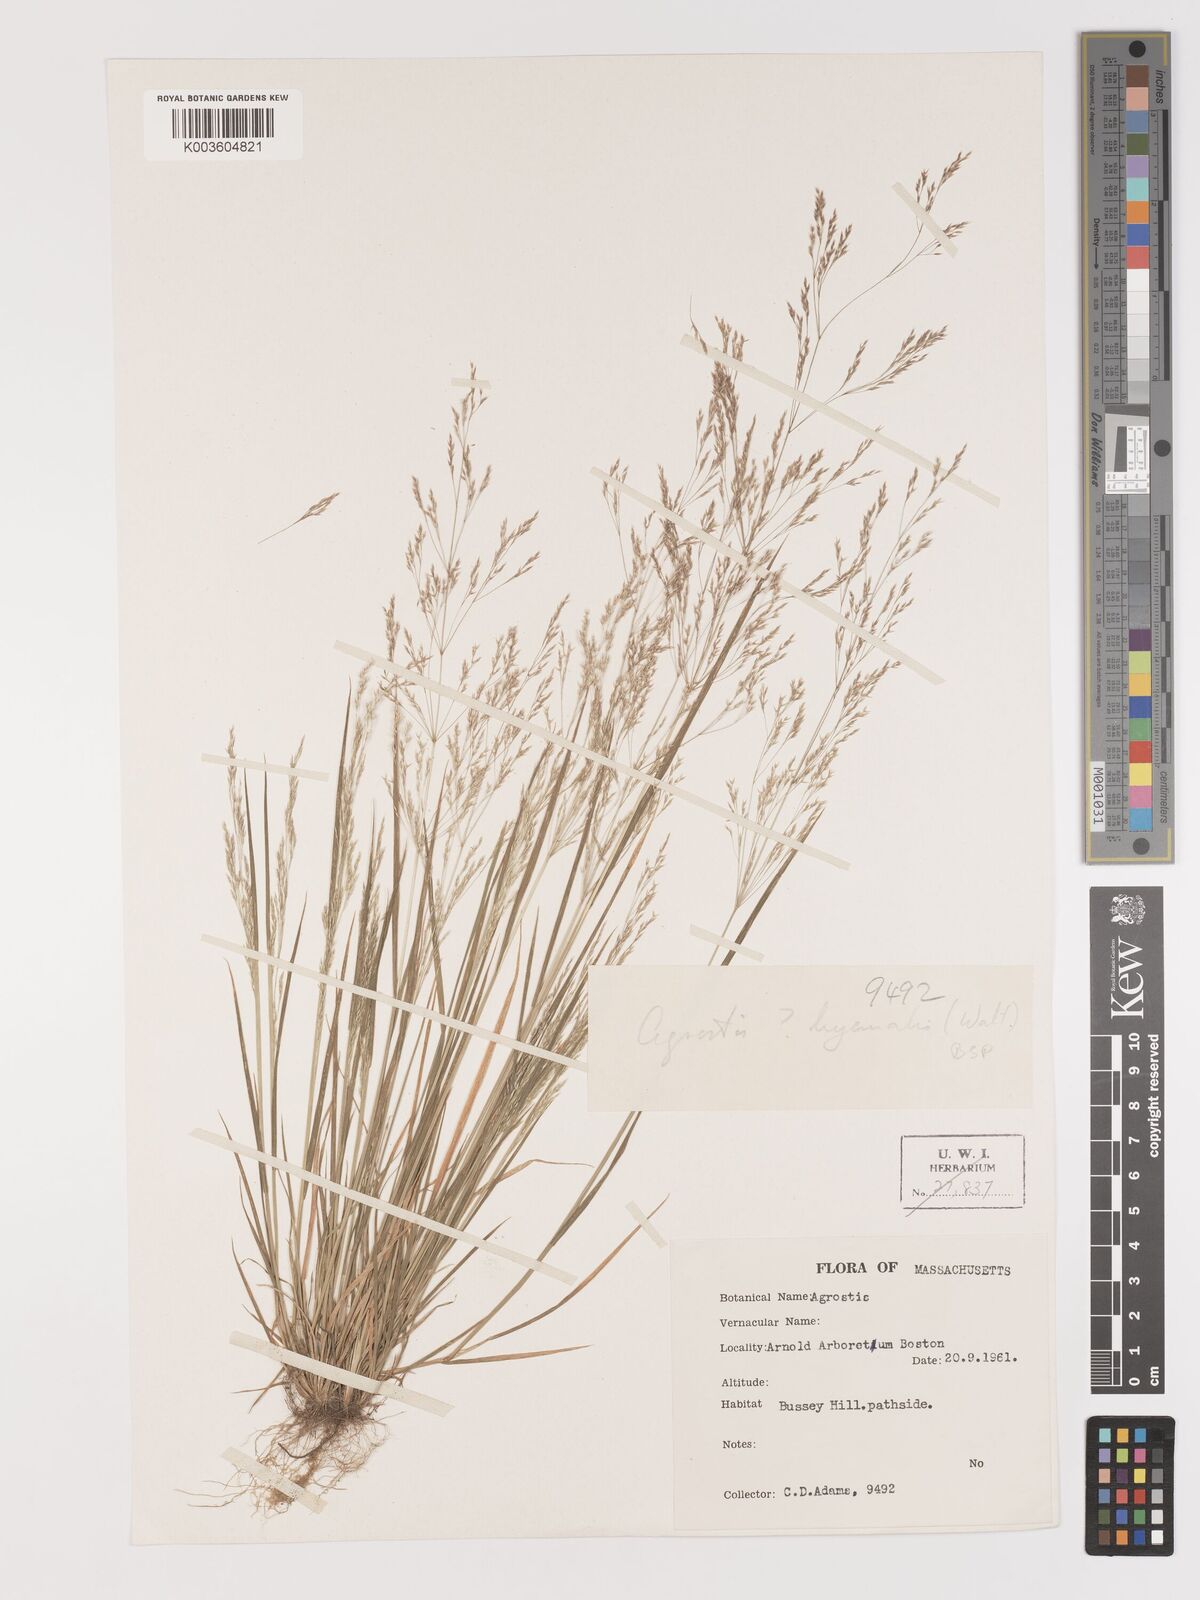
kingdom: Plantae
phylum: Tracheophyta
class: Liliopsida
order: Poales
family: Poaceae
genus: Agrostis
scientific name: Agrostis
